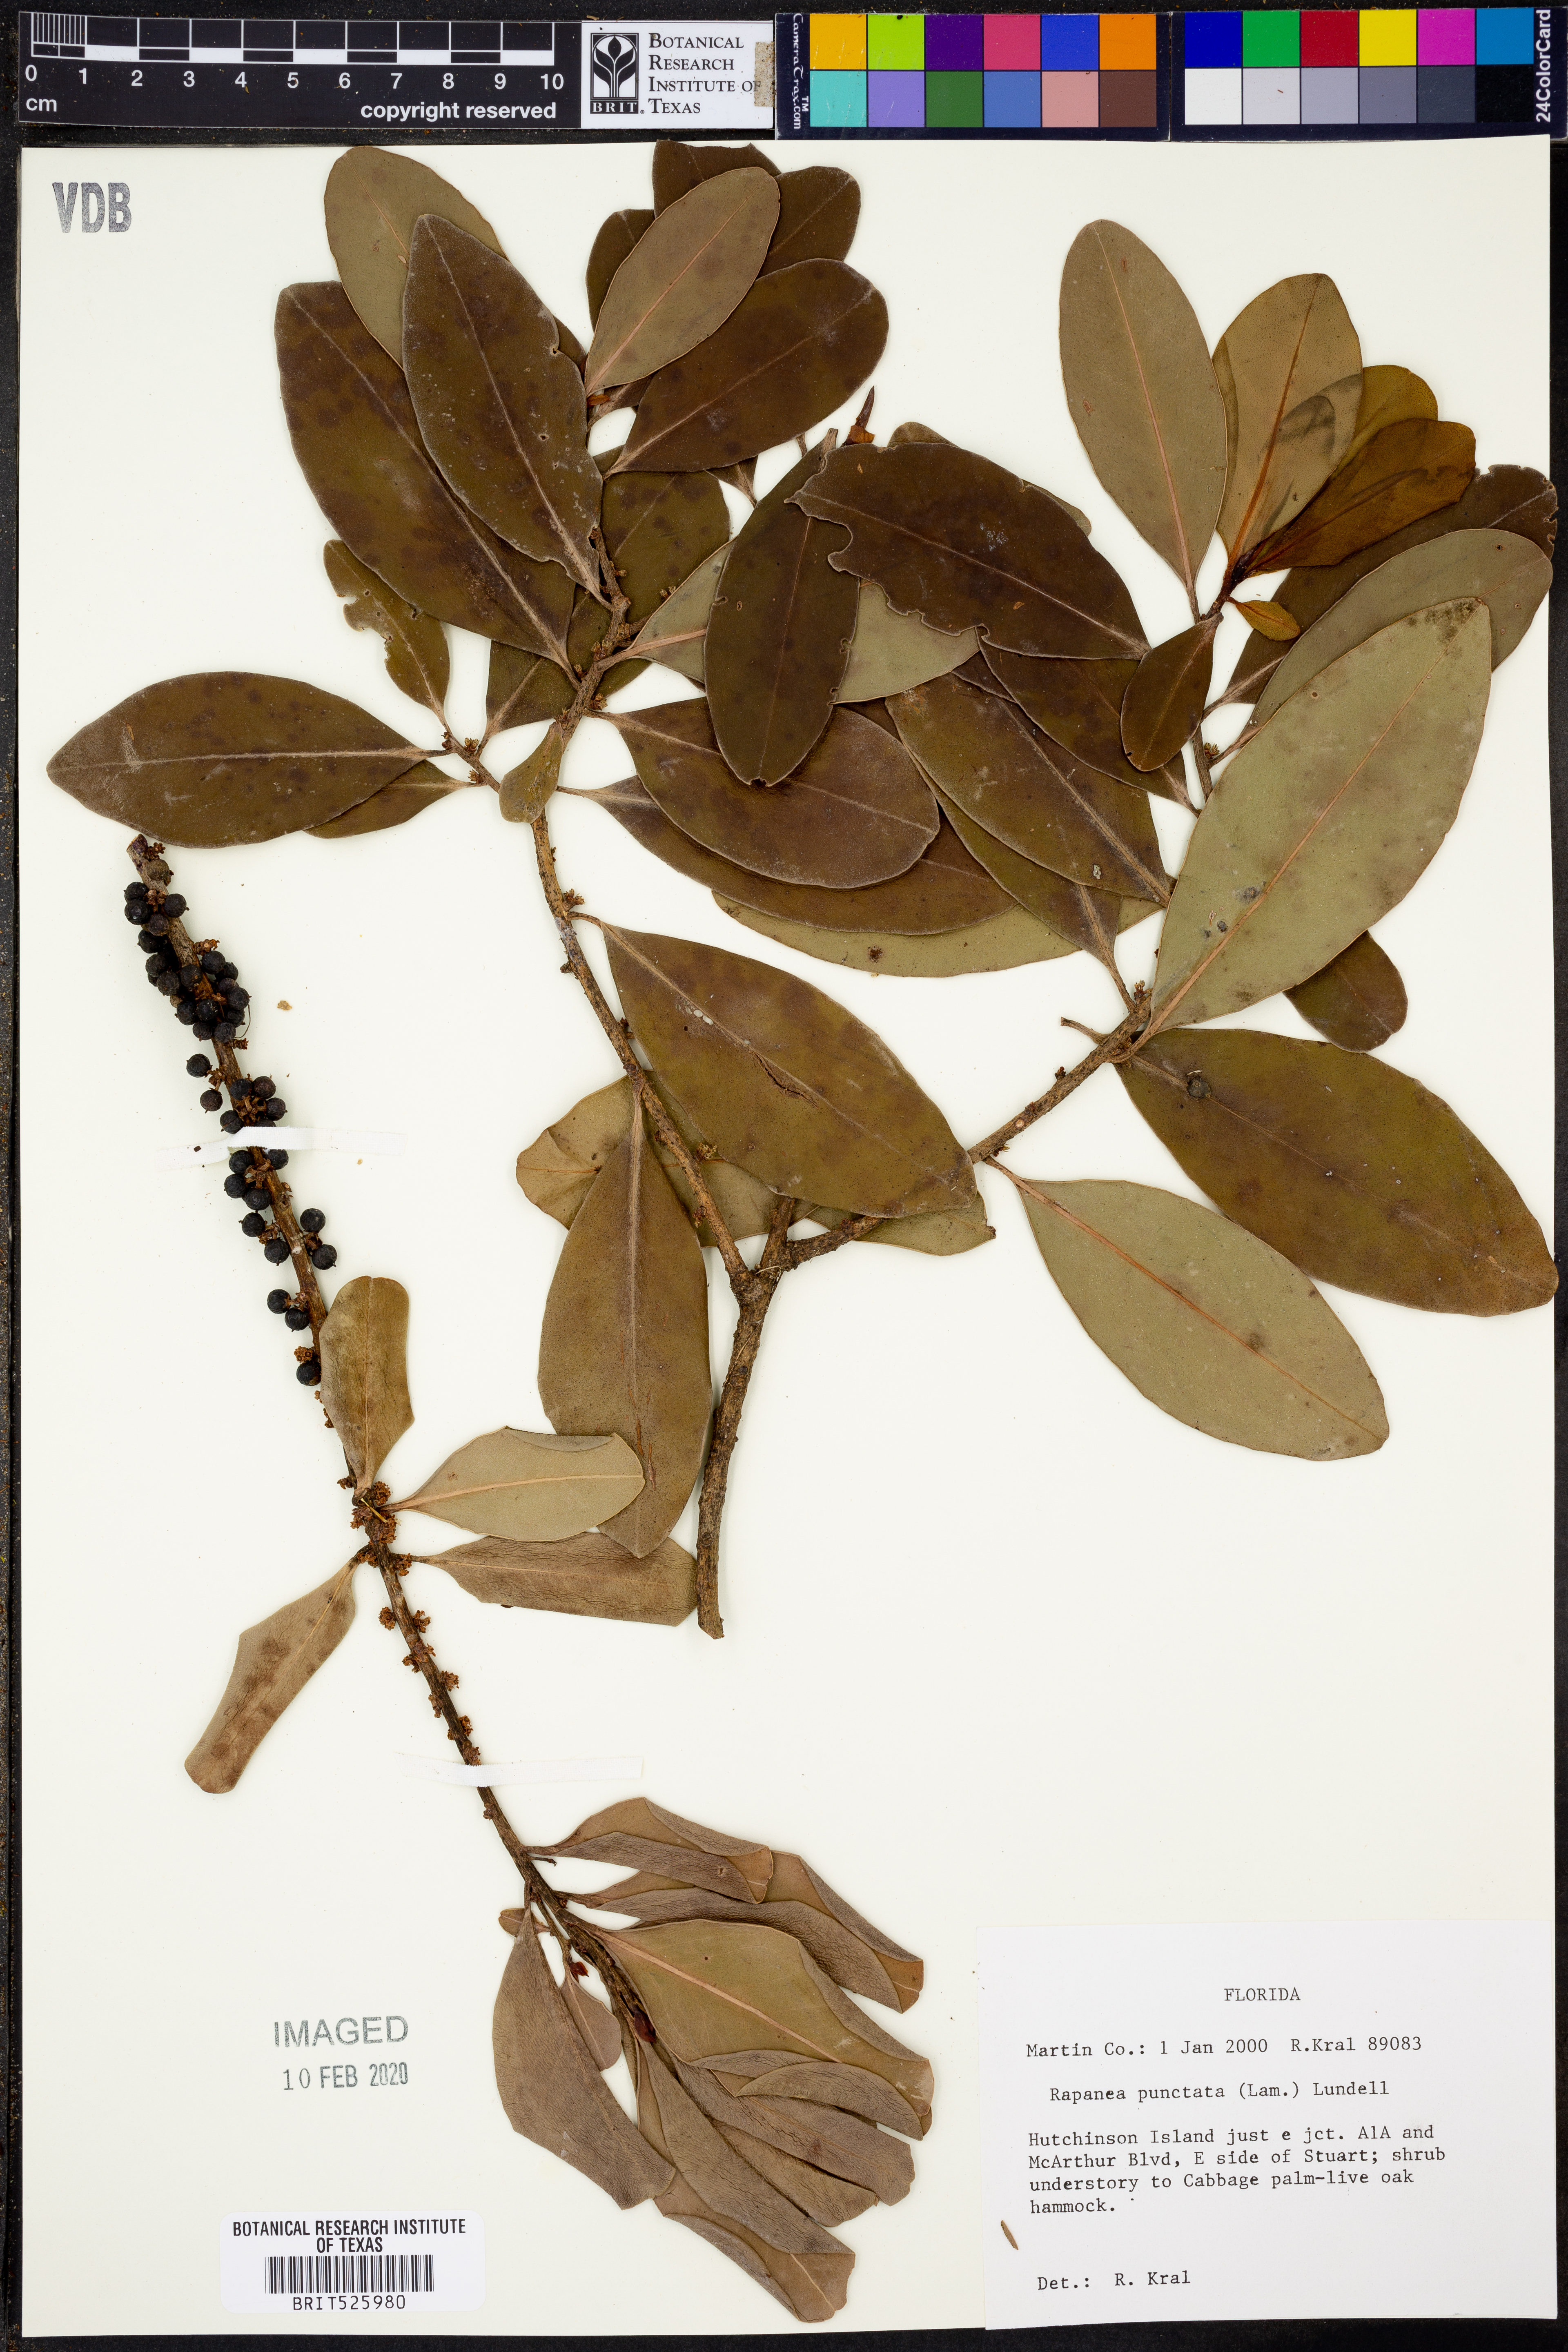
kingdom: Plantae
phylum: Tracheophyta
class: Magnoliopsida
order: Ericales
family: Primulaceae
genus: Myrsine
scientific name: Myrsine floridana
